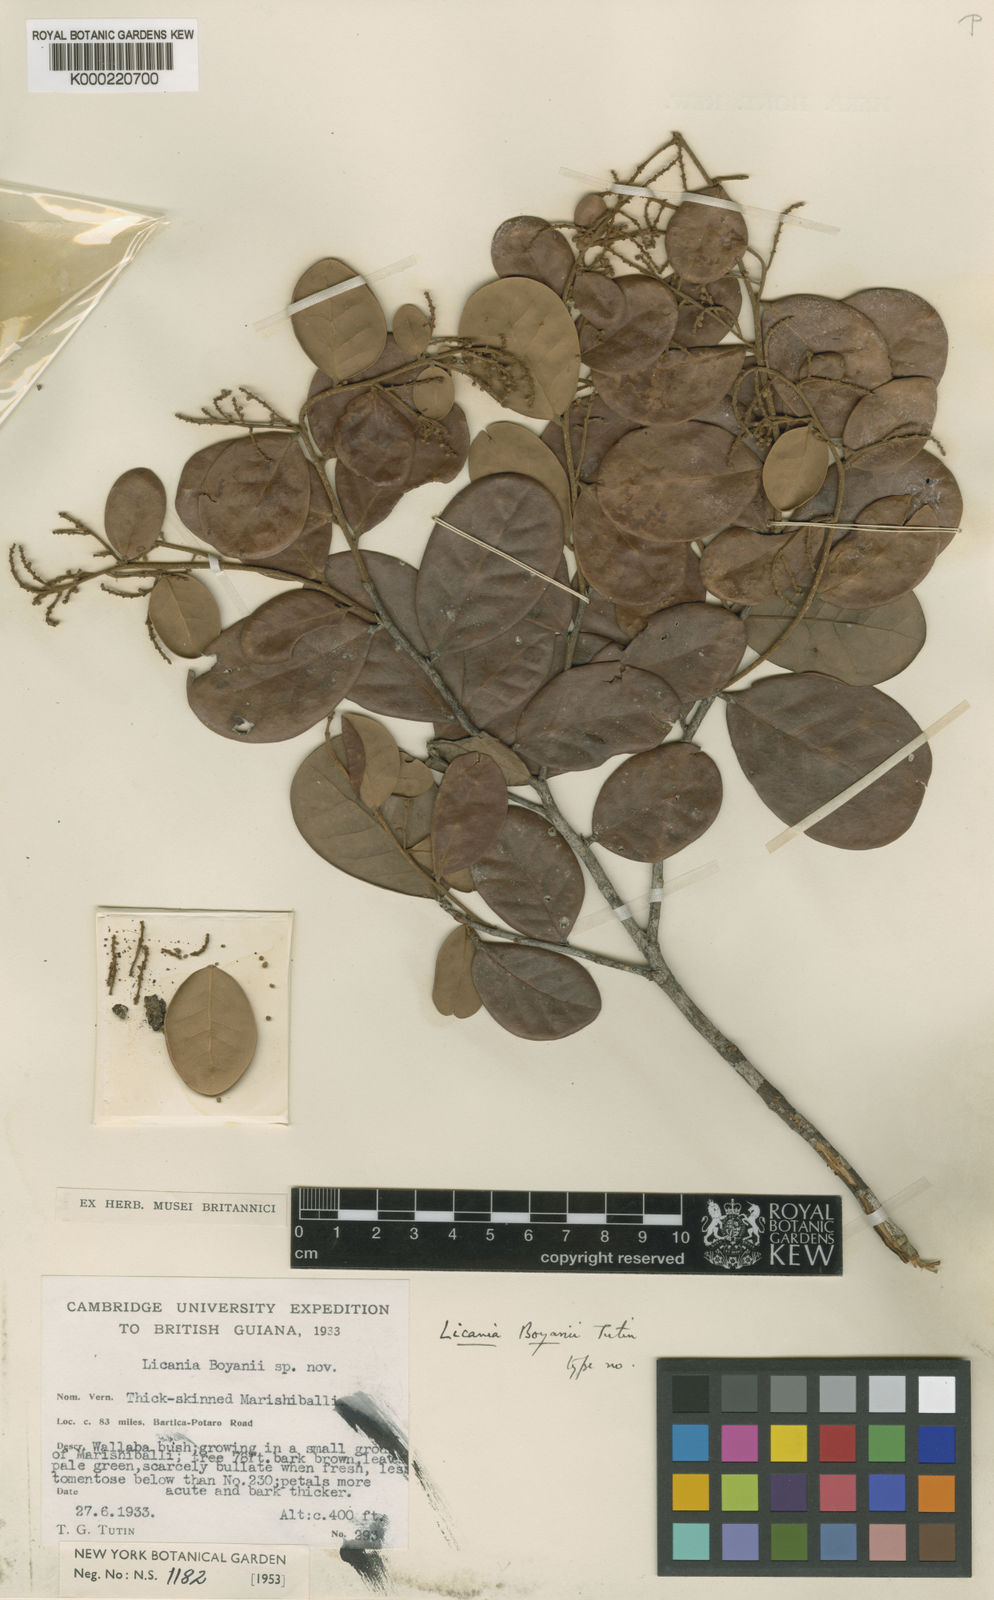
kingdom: Plantae
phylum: Tracheophyta
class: Magnoliopsida
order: Malpighiales
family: Chrysobalanaceae
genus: Licania
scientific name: Licania boyanii
